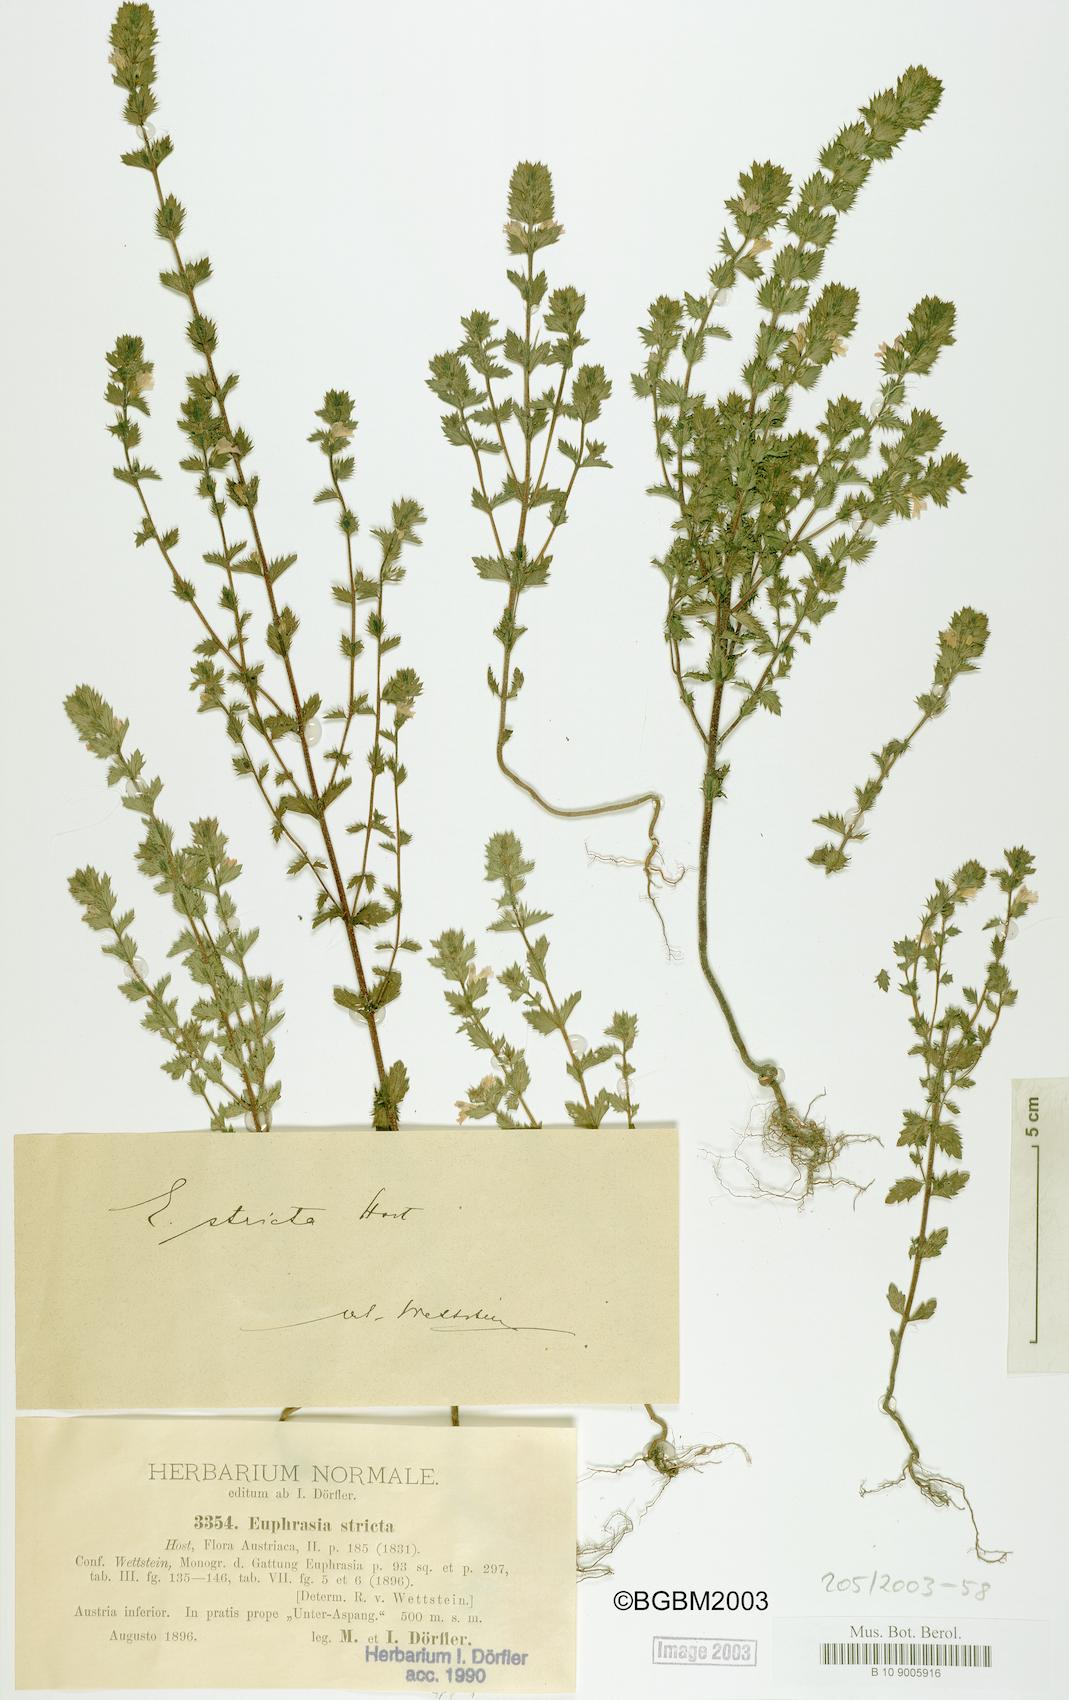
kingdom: Plantae
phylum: Tracheophyta
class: Magnoliopsida
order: Lamiales
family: Orobanchaceae
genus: Euphrasia
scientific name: Euphrasia stricta
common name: Drug eyebright
